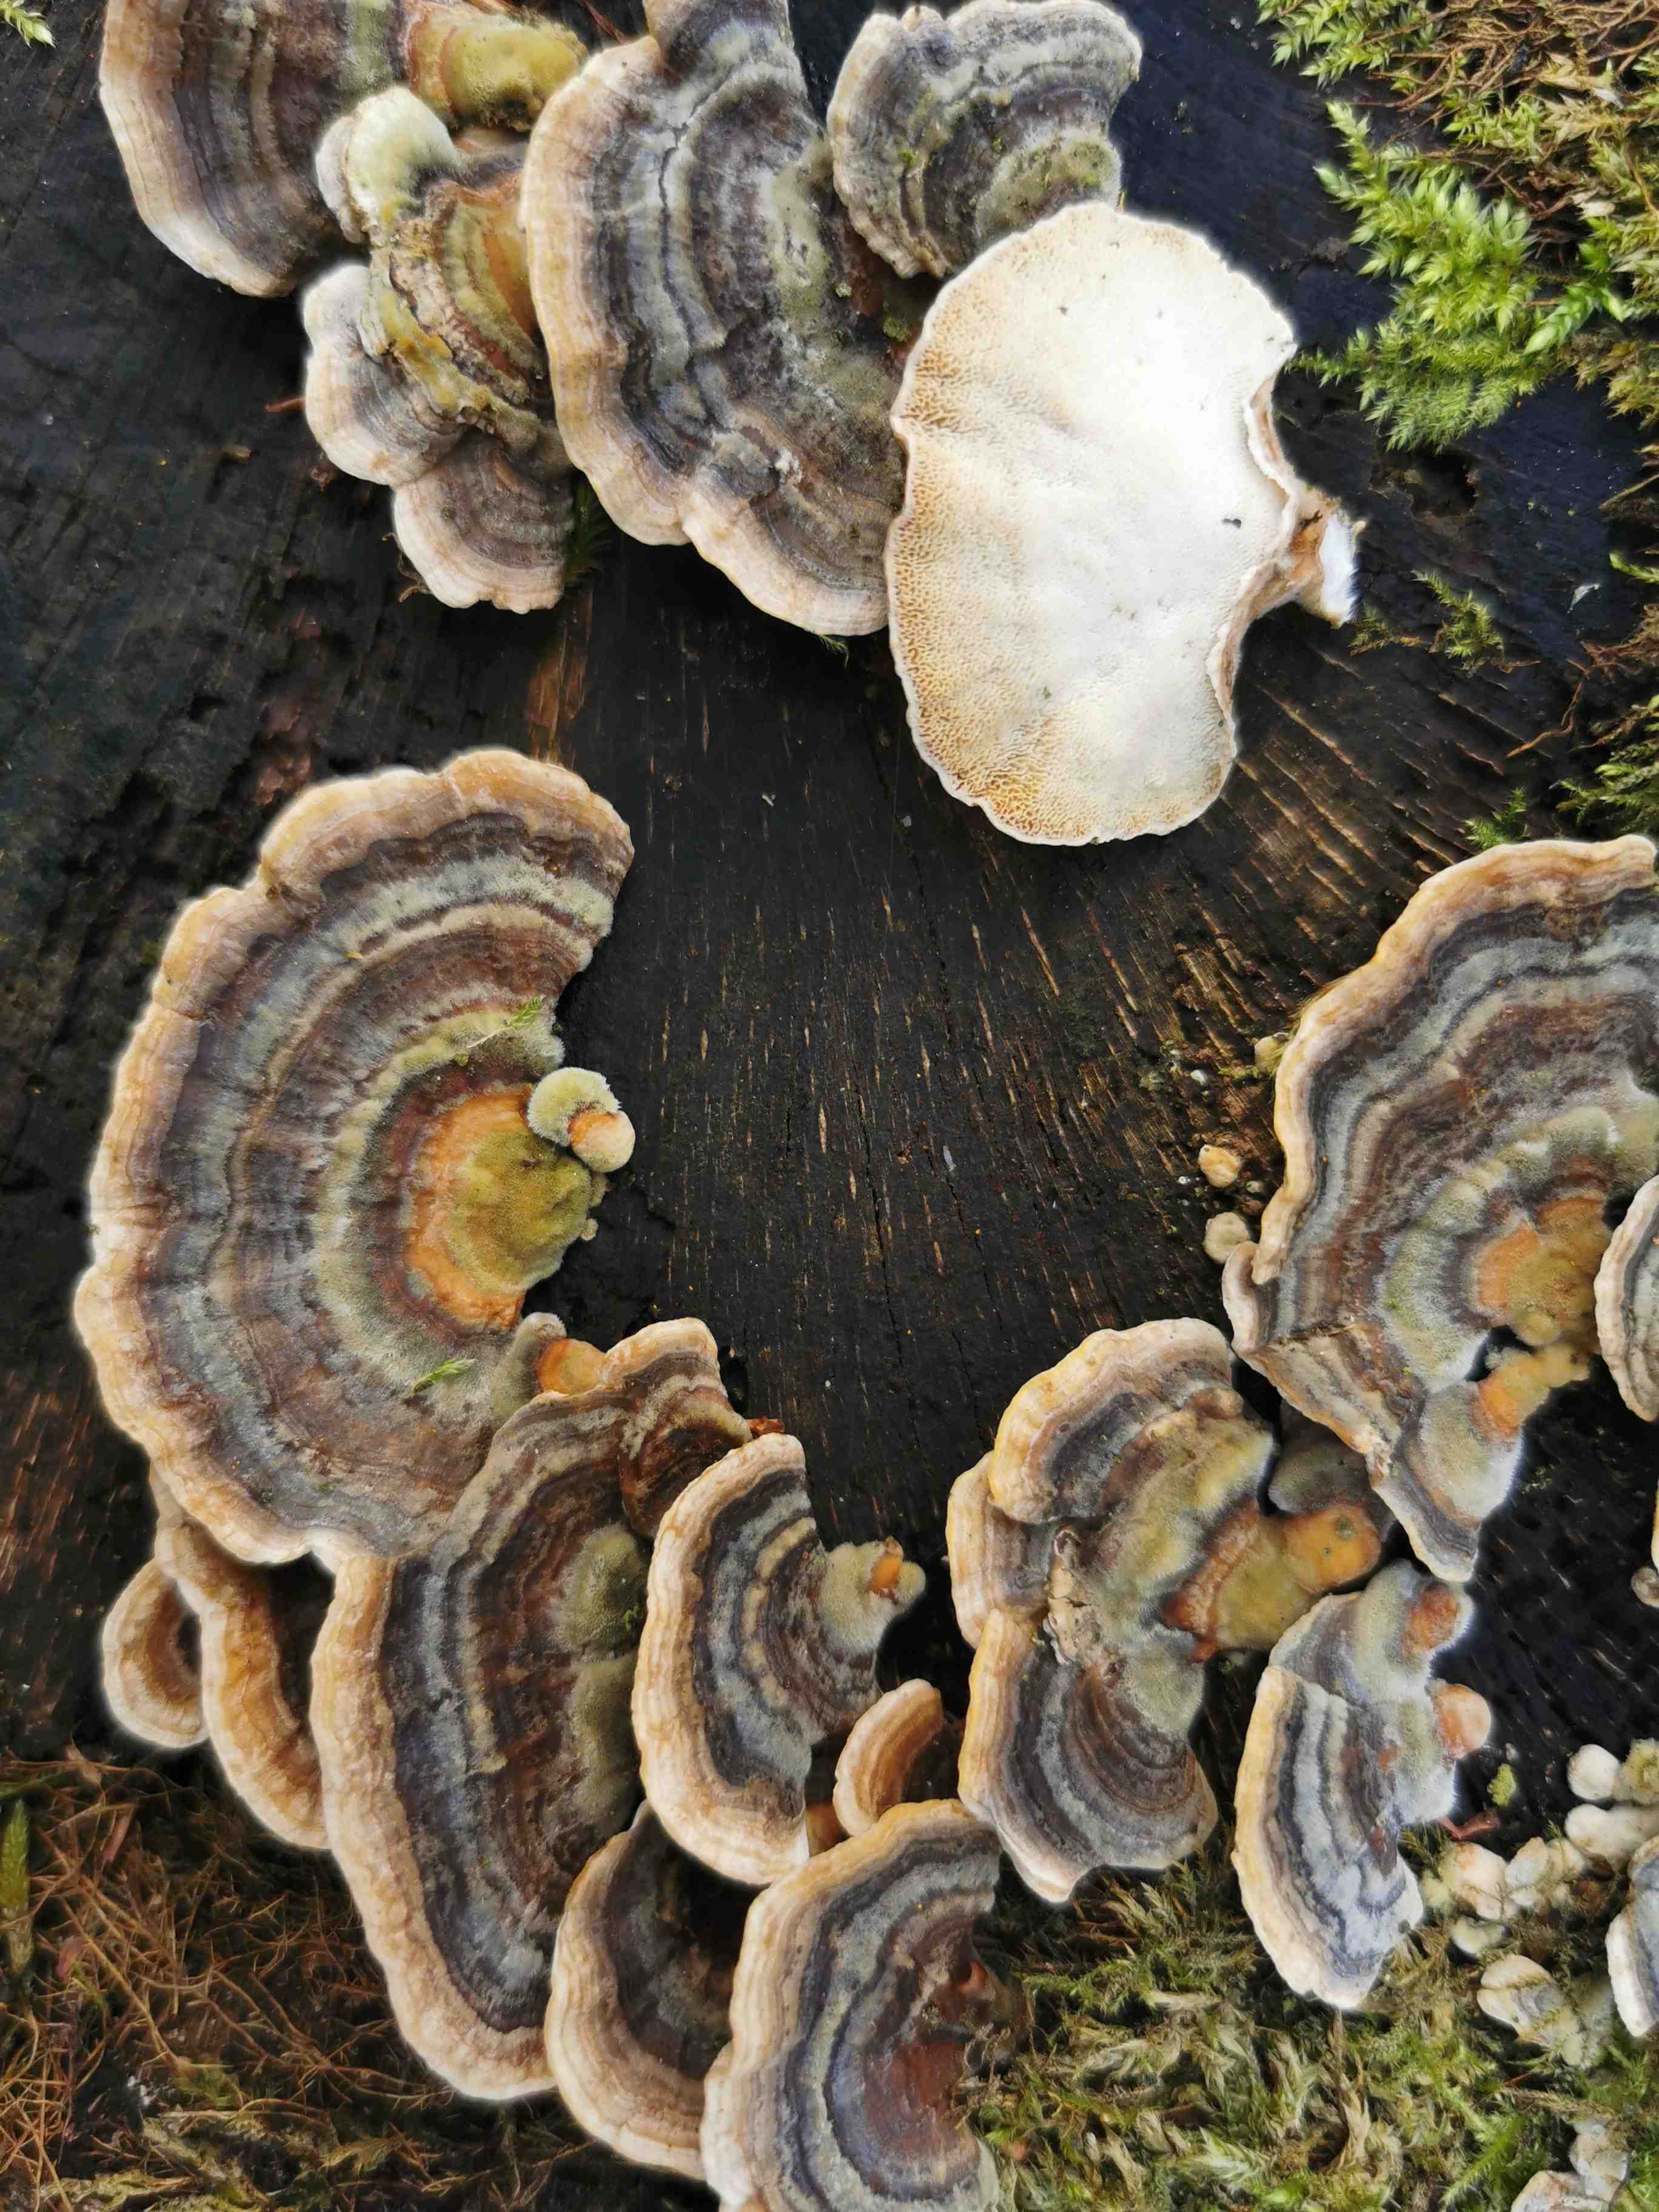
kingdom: Fungi
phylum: Basidiomycota
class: Agaricomycetes
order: Polyporales
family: Polyporaceae
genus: Trametes
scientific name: Trametes versicolor
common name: broget læderporesvamp
